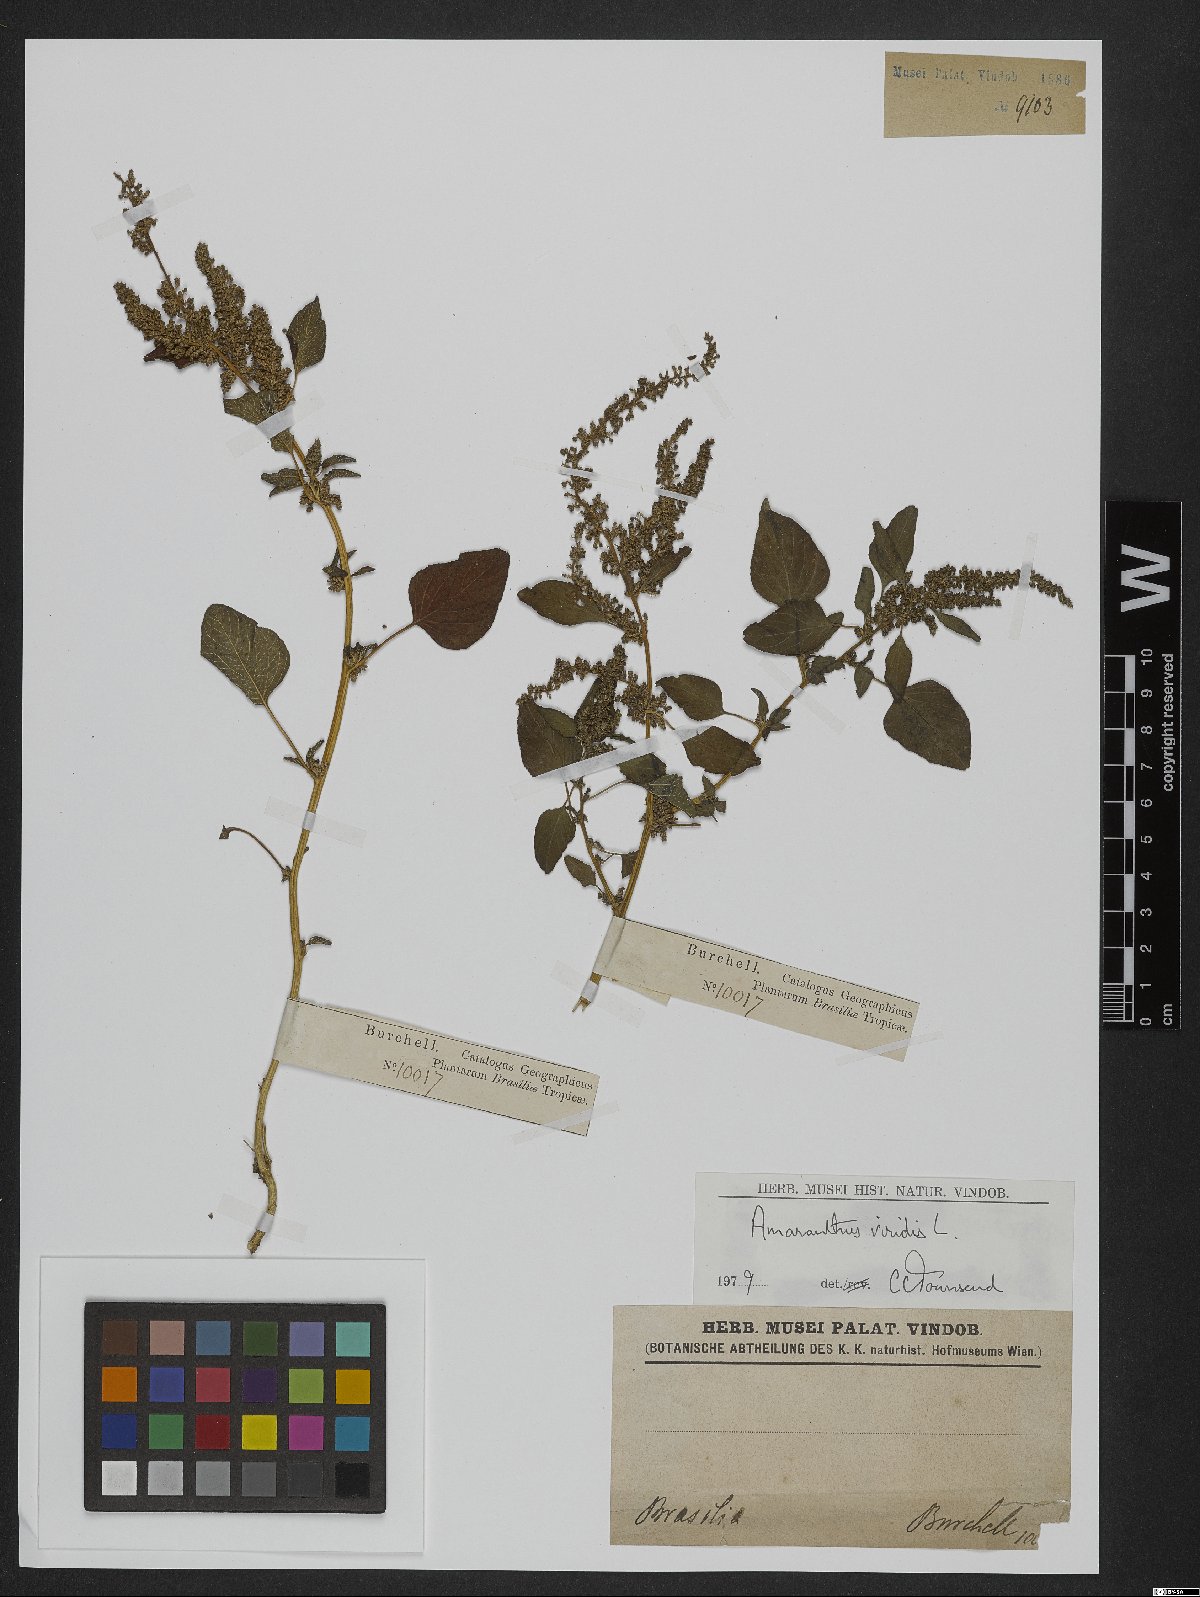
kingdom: Plantae
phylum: Tracheophyta
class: Magnoliopsida
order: Caryophyllales
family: Amaranthaceae
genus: Amaranthus
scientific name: Amaranthus viridis
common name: Slender amaranth
